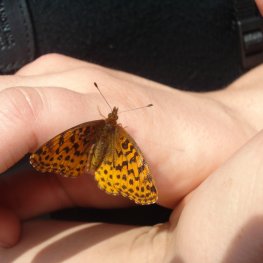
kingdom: Animalia
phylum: Arthropoda
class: Insecta
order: Lepidoptera
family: Nymphalidae
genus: Clossiana
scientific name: Clossiana toddi
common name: Meadow Fritillary
